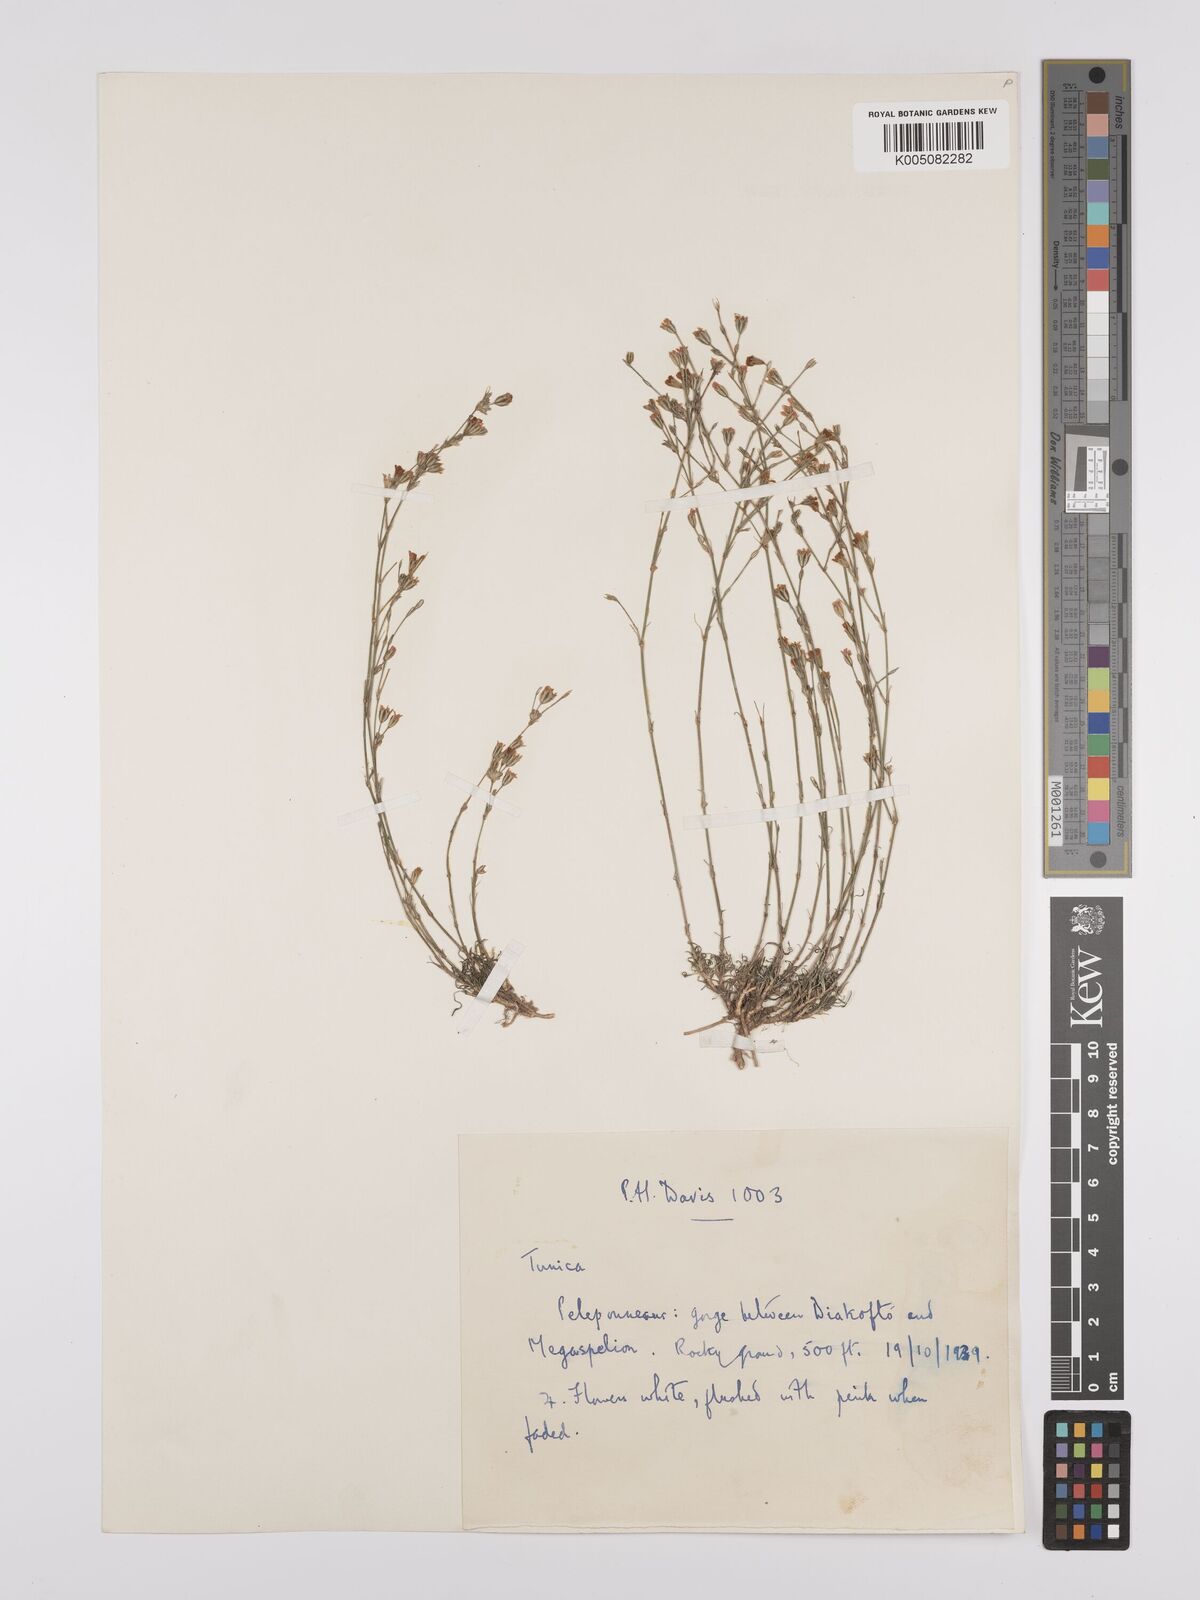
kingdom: Plantae
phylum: Tracheophyta
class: Magnoliopsida
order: Caryophyllales
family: Caryophyllaceae
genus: Petrorhagia
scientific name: Petrorhagia saxifraga
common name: Tunicflower
